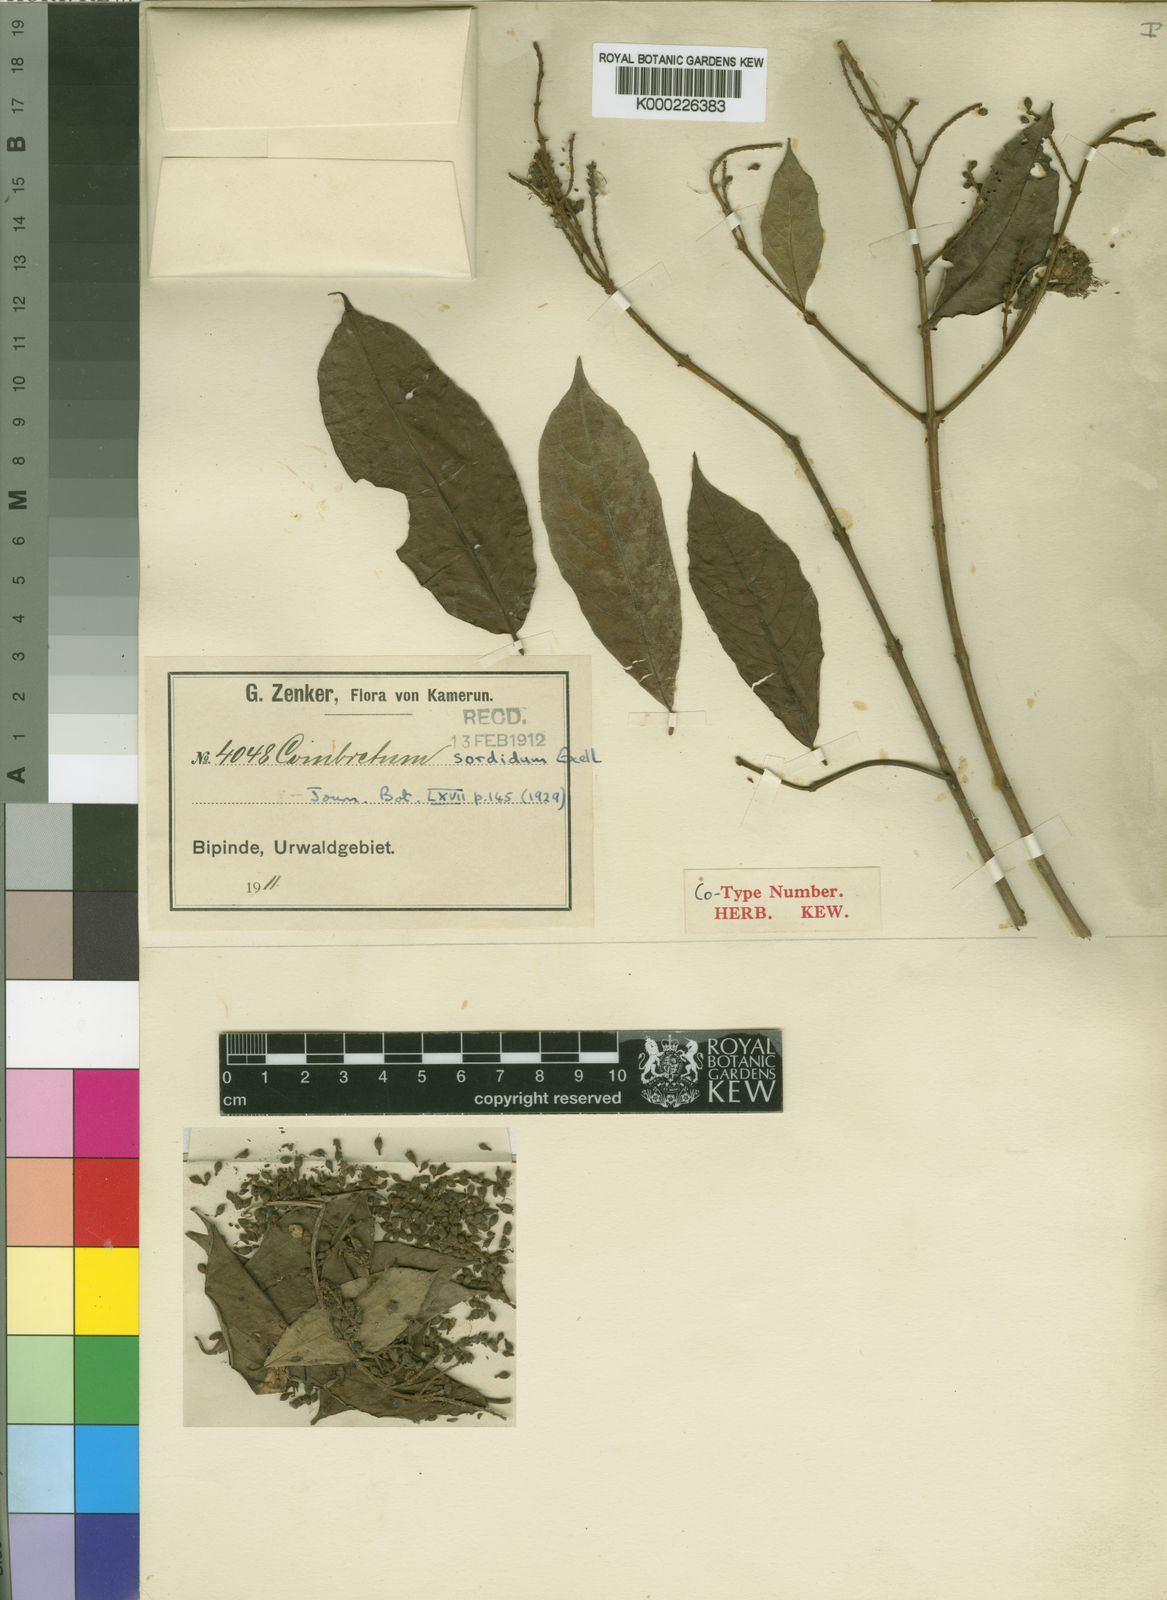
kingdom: Plantae
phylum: Tracheophyta
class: Magnoliopsida
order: Myrtales
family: Combretaceae
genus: Combretum
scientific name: Combretum sordidum
